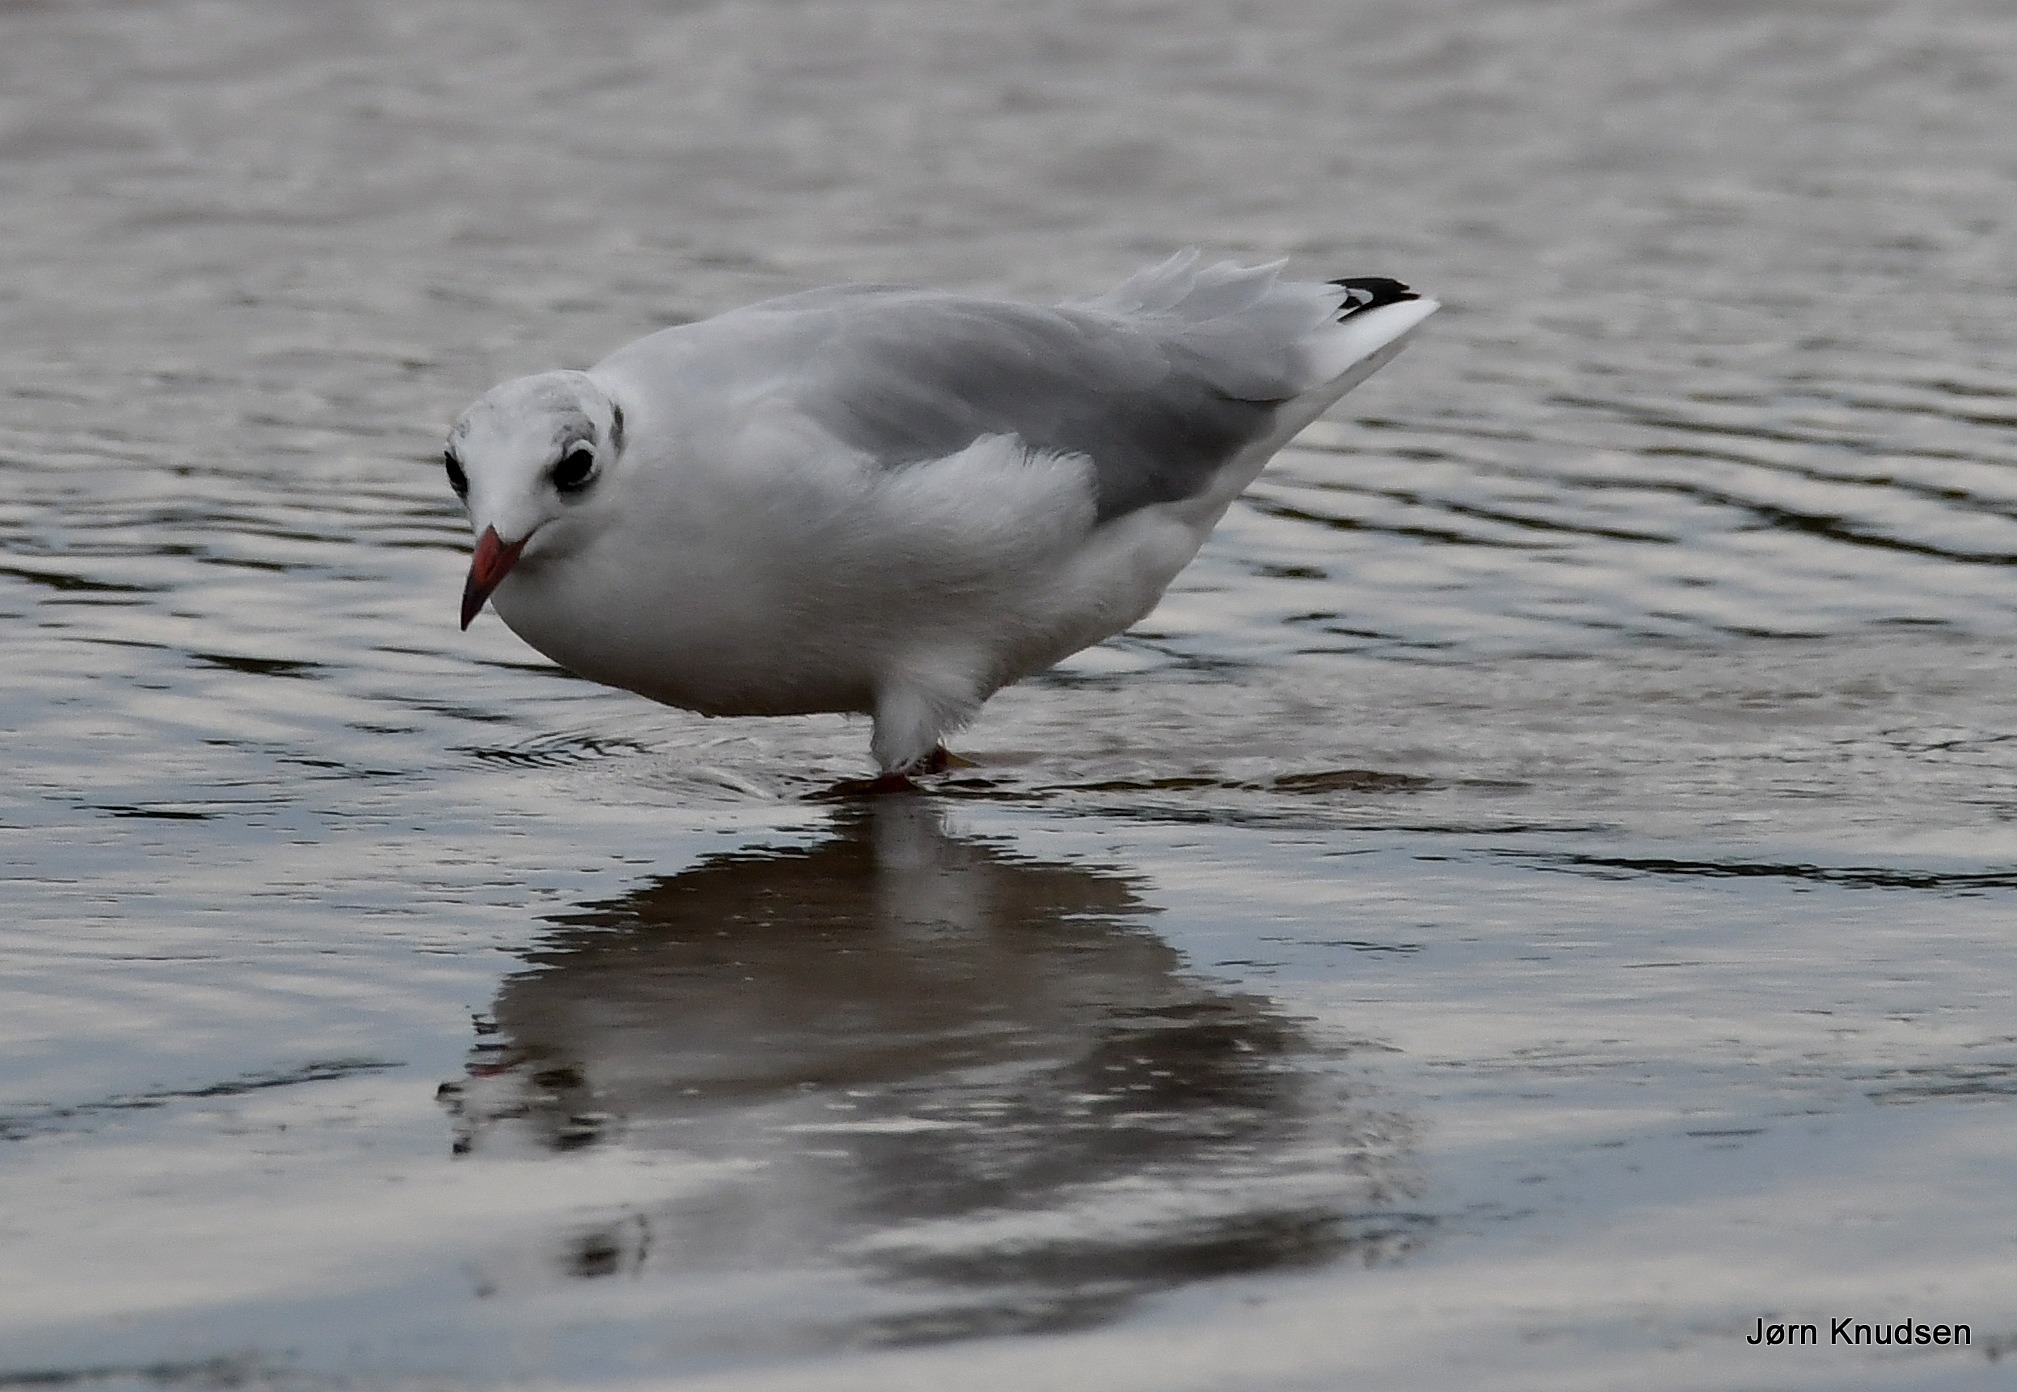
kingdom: Animalia
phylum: Chordata
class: Aves
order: Charadriiformes
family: Laridae
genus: Chroicocephalus
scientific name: Chroicocephalus ridibundus
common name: Hættemåge
